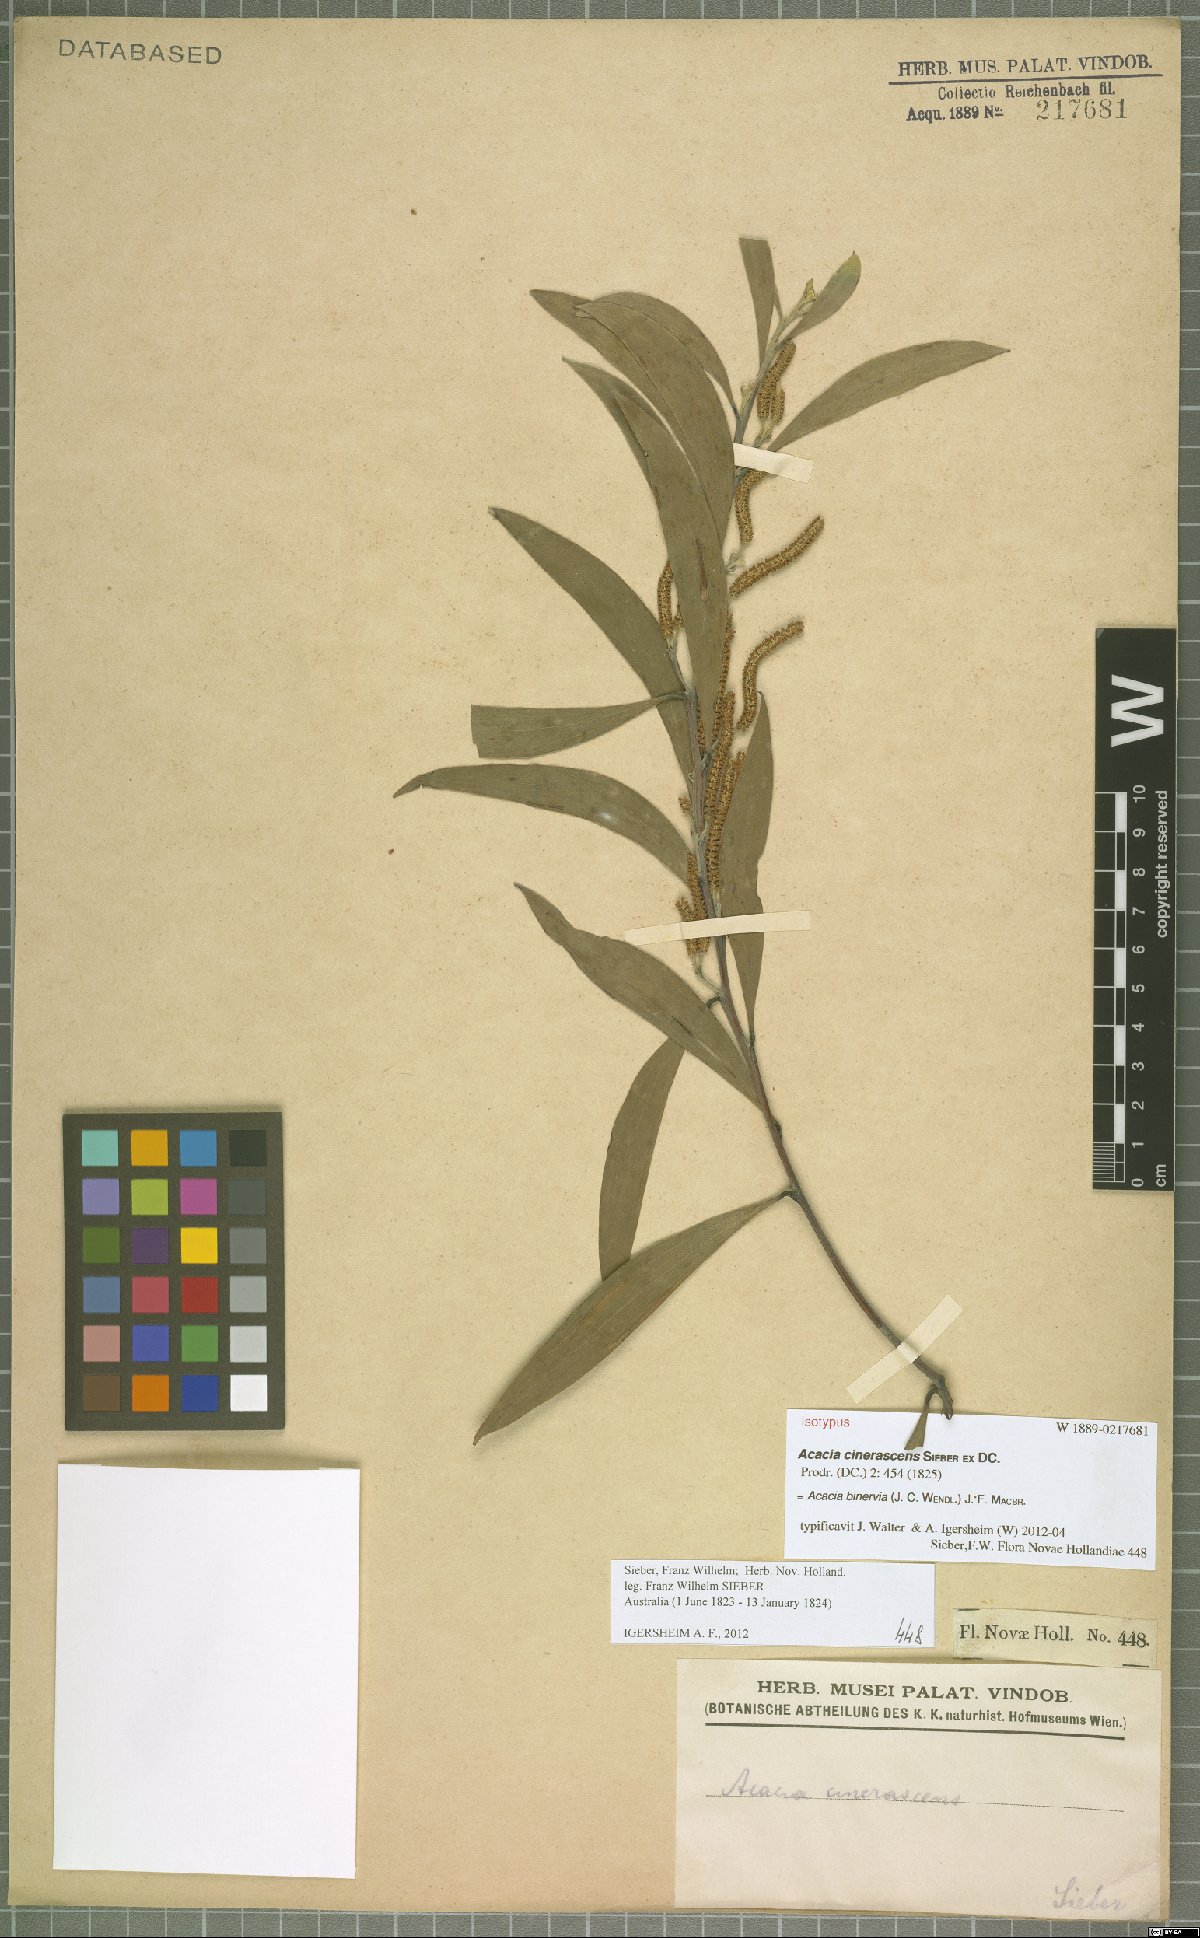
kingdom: Plantae
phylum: Tracheophyta
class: Magnoliopsida
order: Fabales
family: Fabaceae
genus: Acacia
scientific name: Acacia binervia
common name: Coast myall
